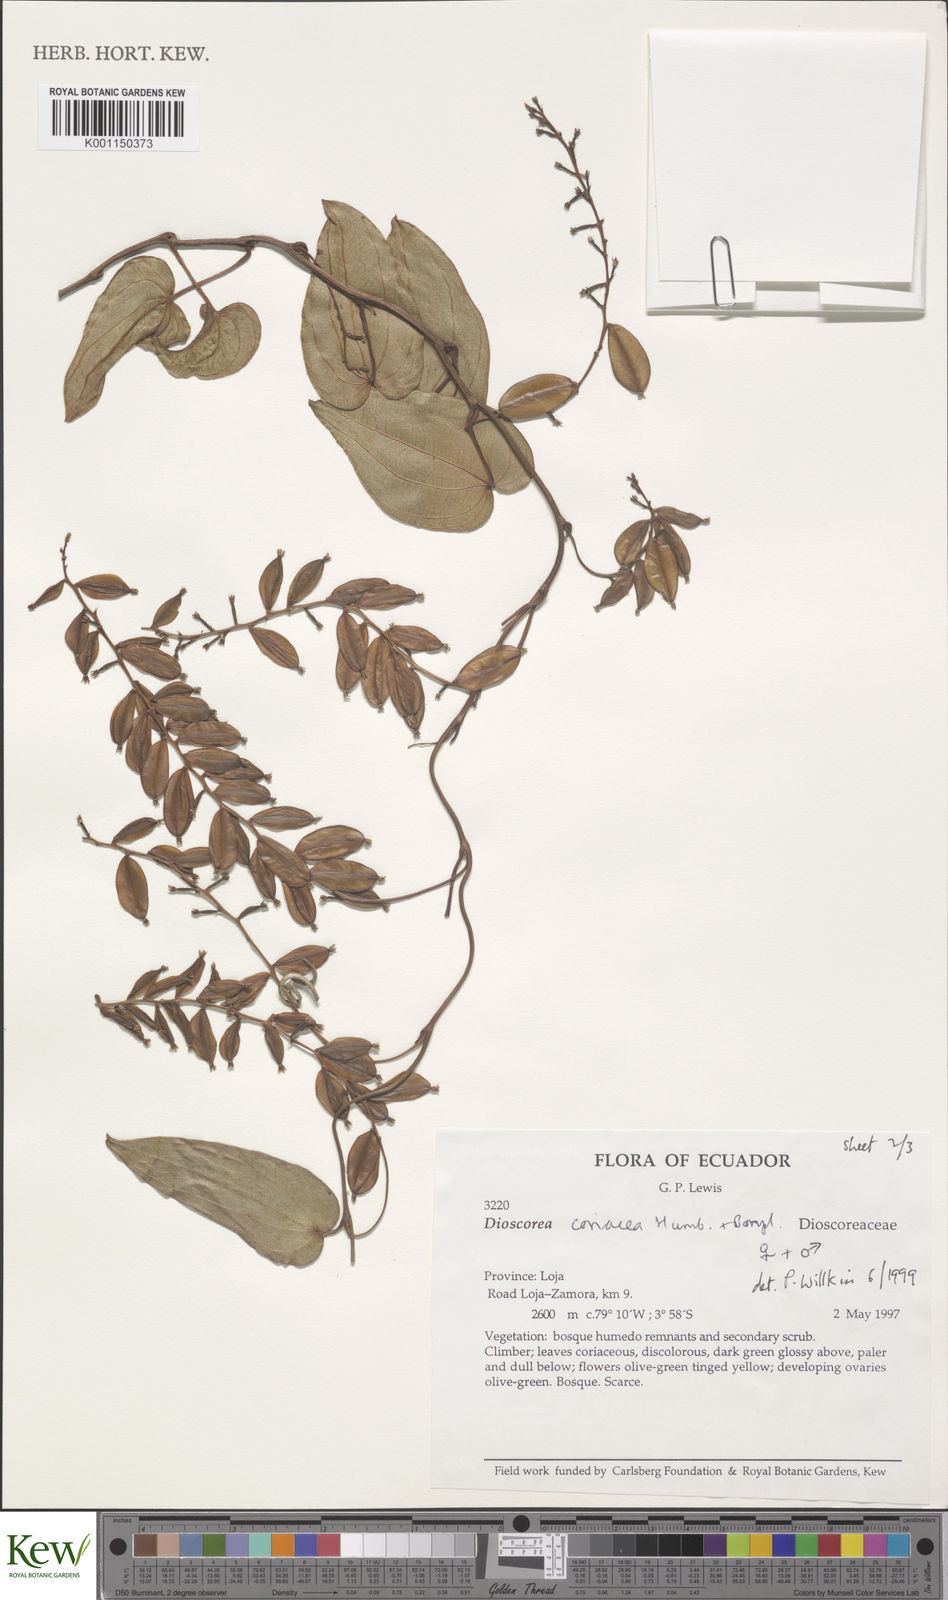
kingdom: Plantae
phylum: Tracheophyta
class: Liliopsida
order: Dioscoreales
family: Dioscoreaceae
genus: Dioscorea
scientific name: Dioscorea coriacea
